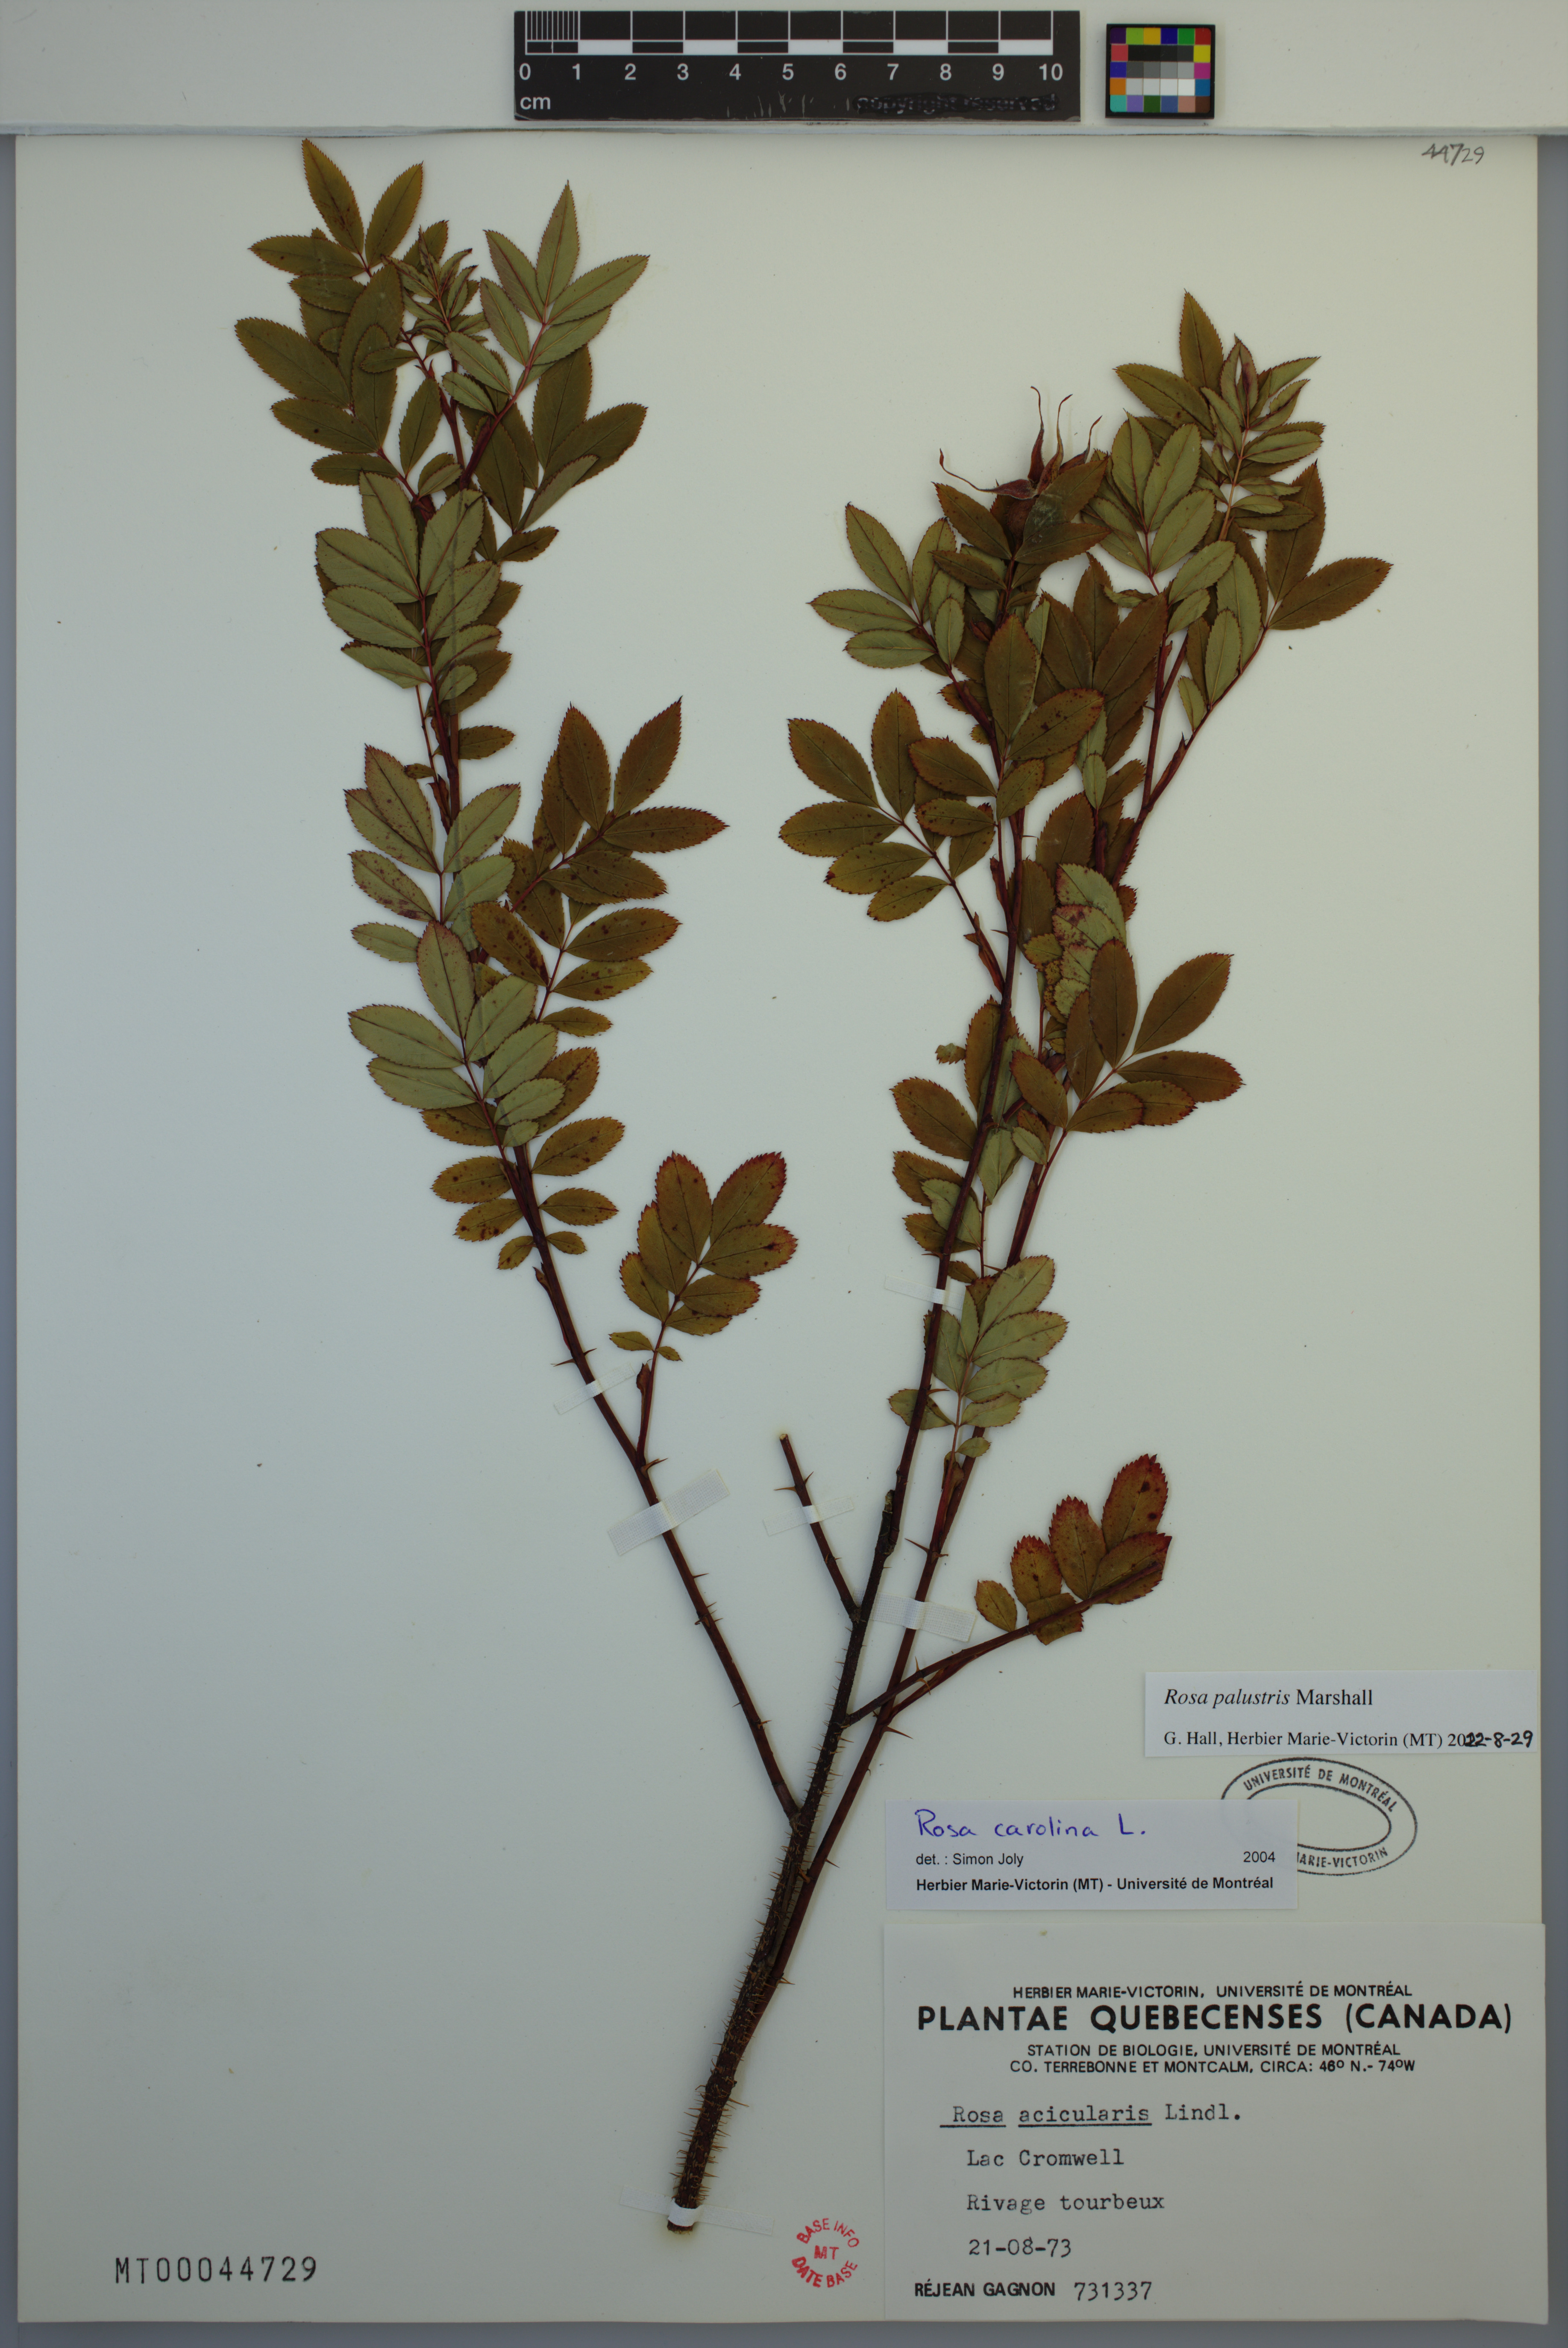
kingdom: Plantae
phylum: Tracheophyta
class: Magnoliopsida
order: Rosales
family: Rosaceae
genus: Rosa
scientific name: Rosa palustris
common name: Swamp rose
